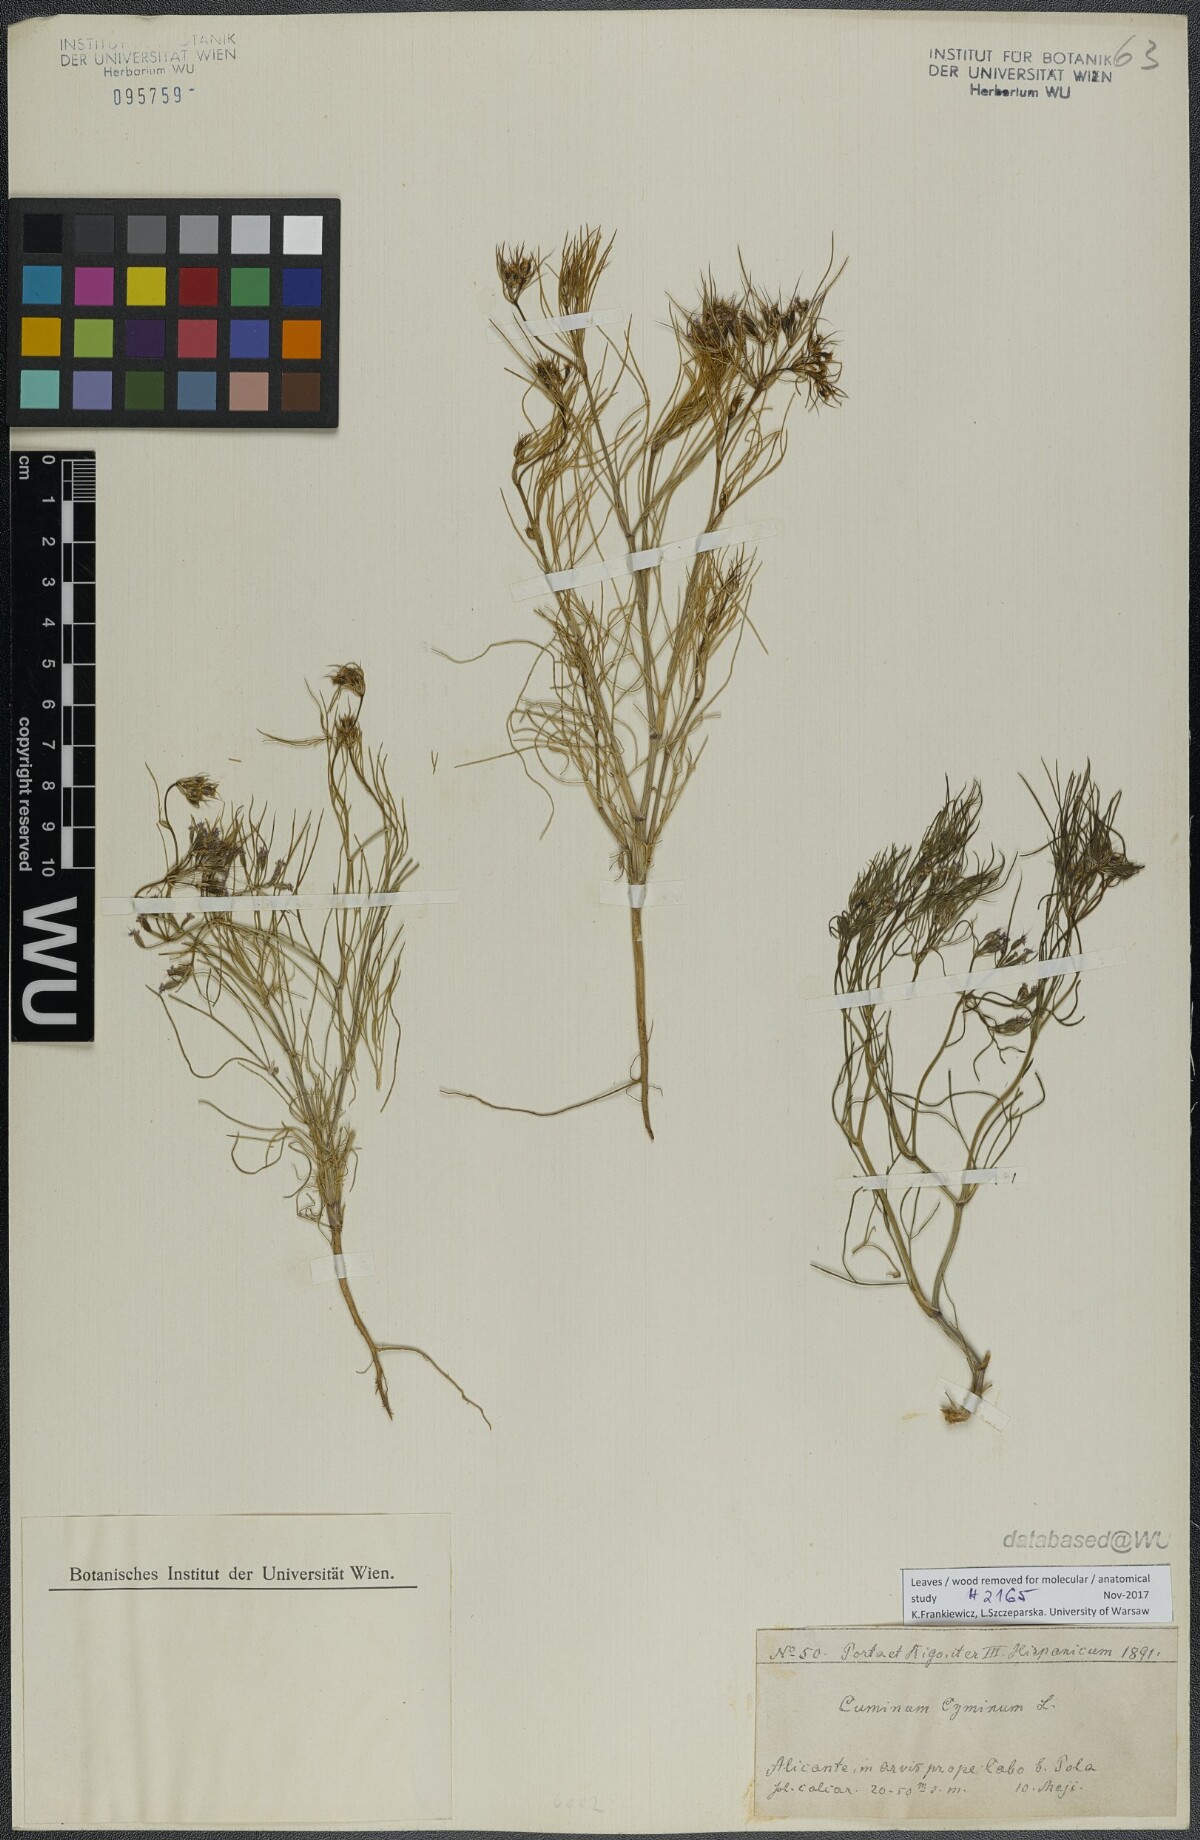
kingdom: Plantae
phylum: Tracheophyta
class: Magnoliopsida
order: Apiales
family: Apiaceae
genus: Cuminum
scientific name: Cuminum cyminum
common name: Cumin
